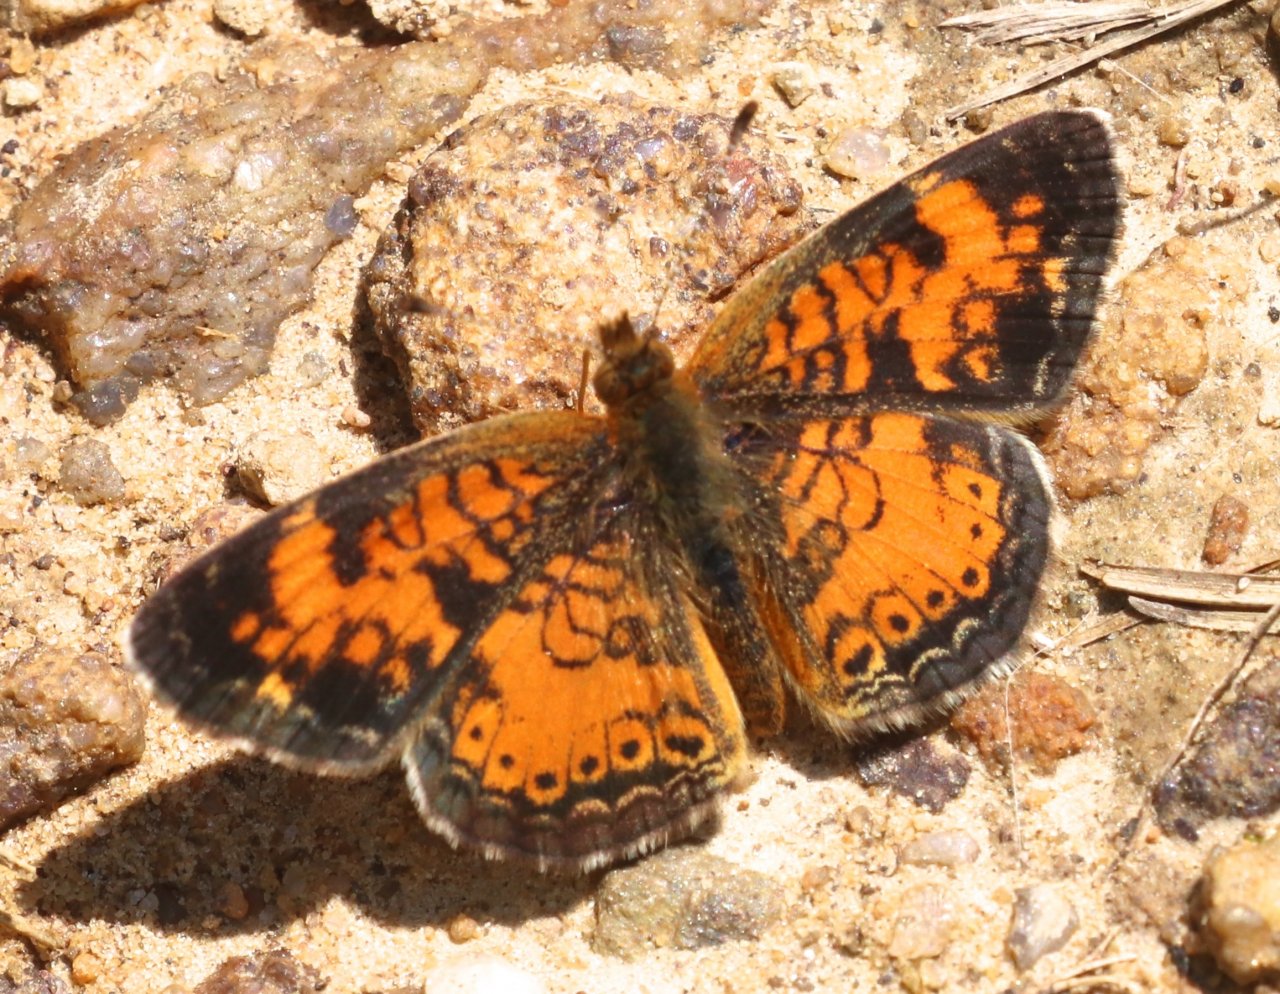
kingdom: Animalia
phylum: Arthropoda
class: Insecta
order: Lepidoptera
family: Nymphalidae
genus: Phyciodes
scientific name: Phyciodes tharos
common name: Pearl Crescent
